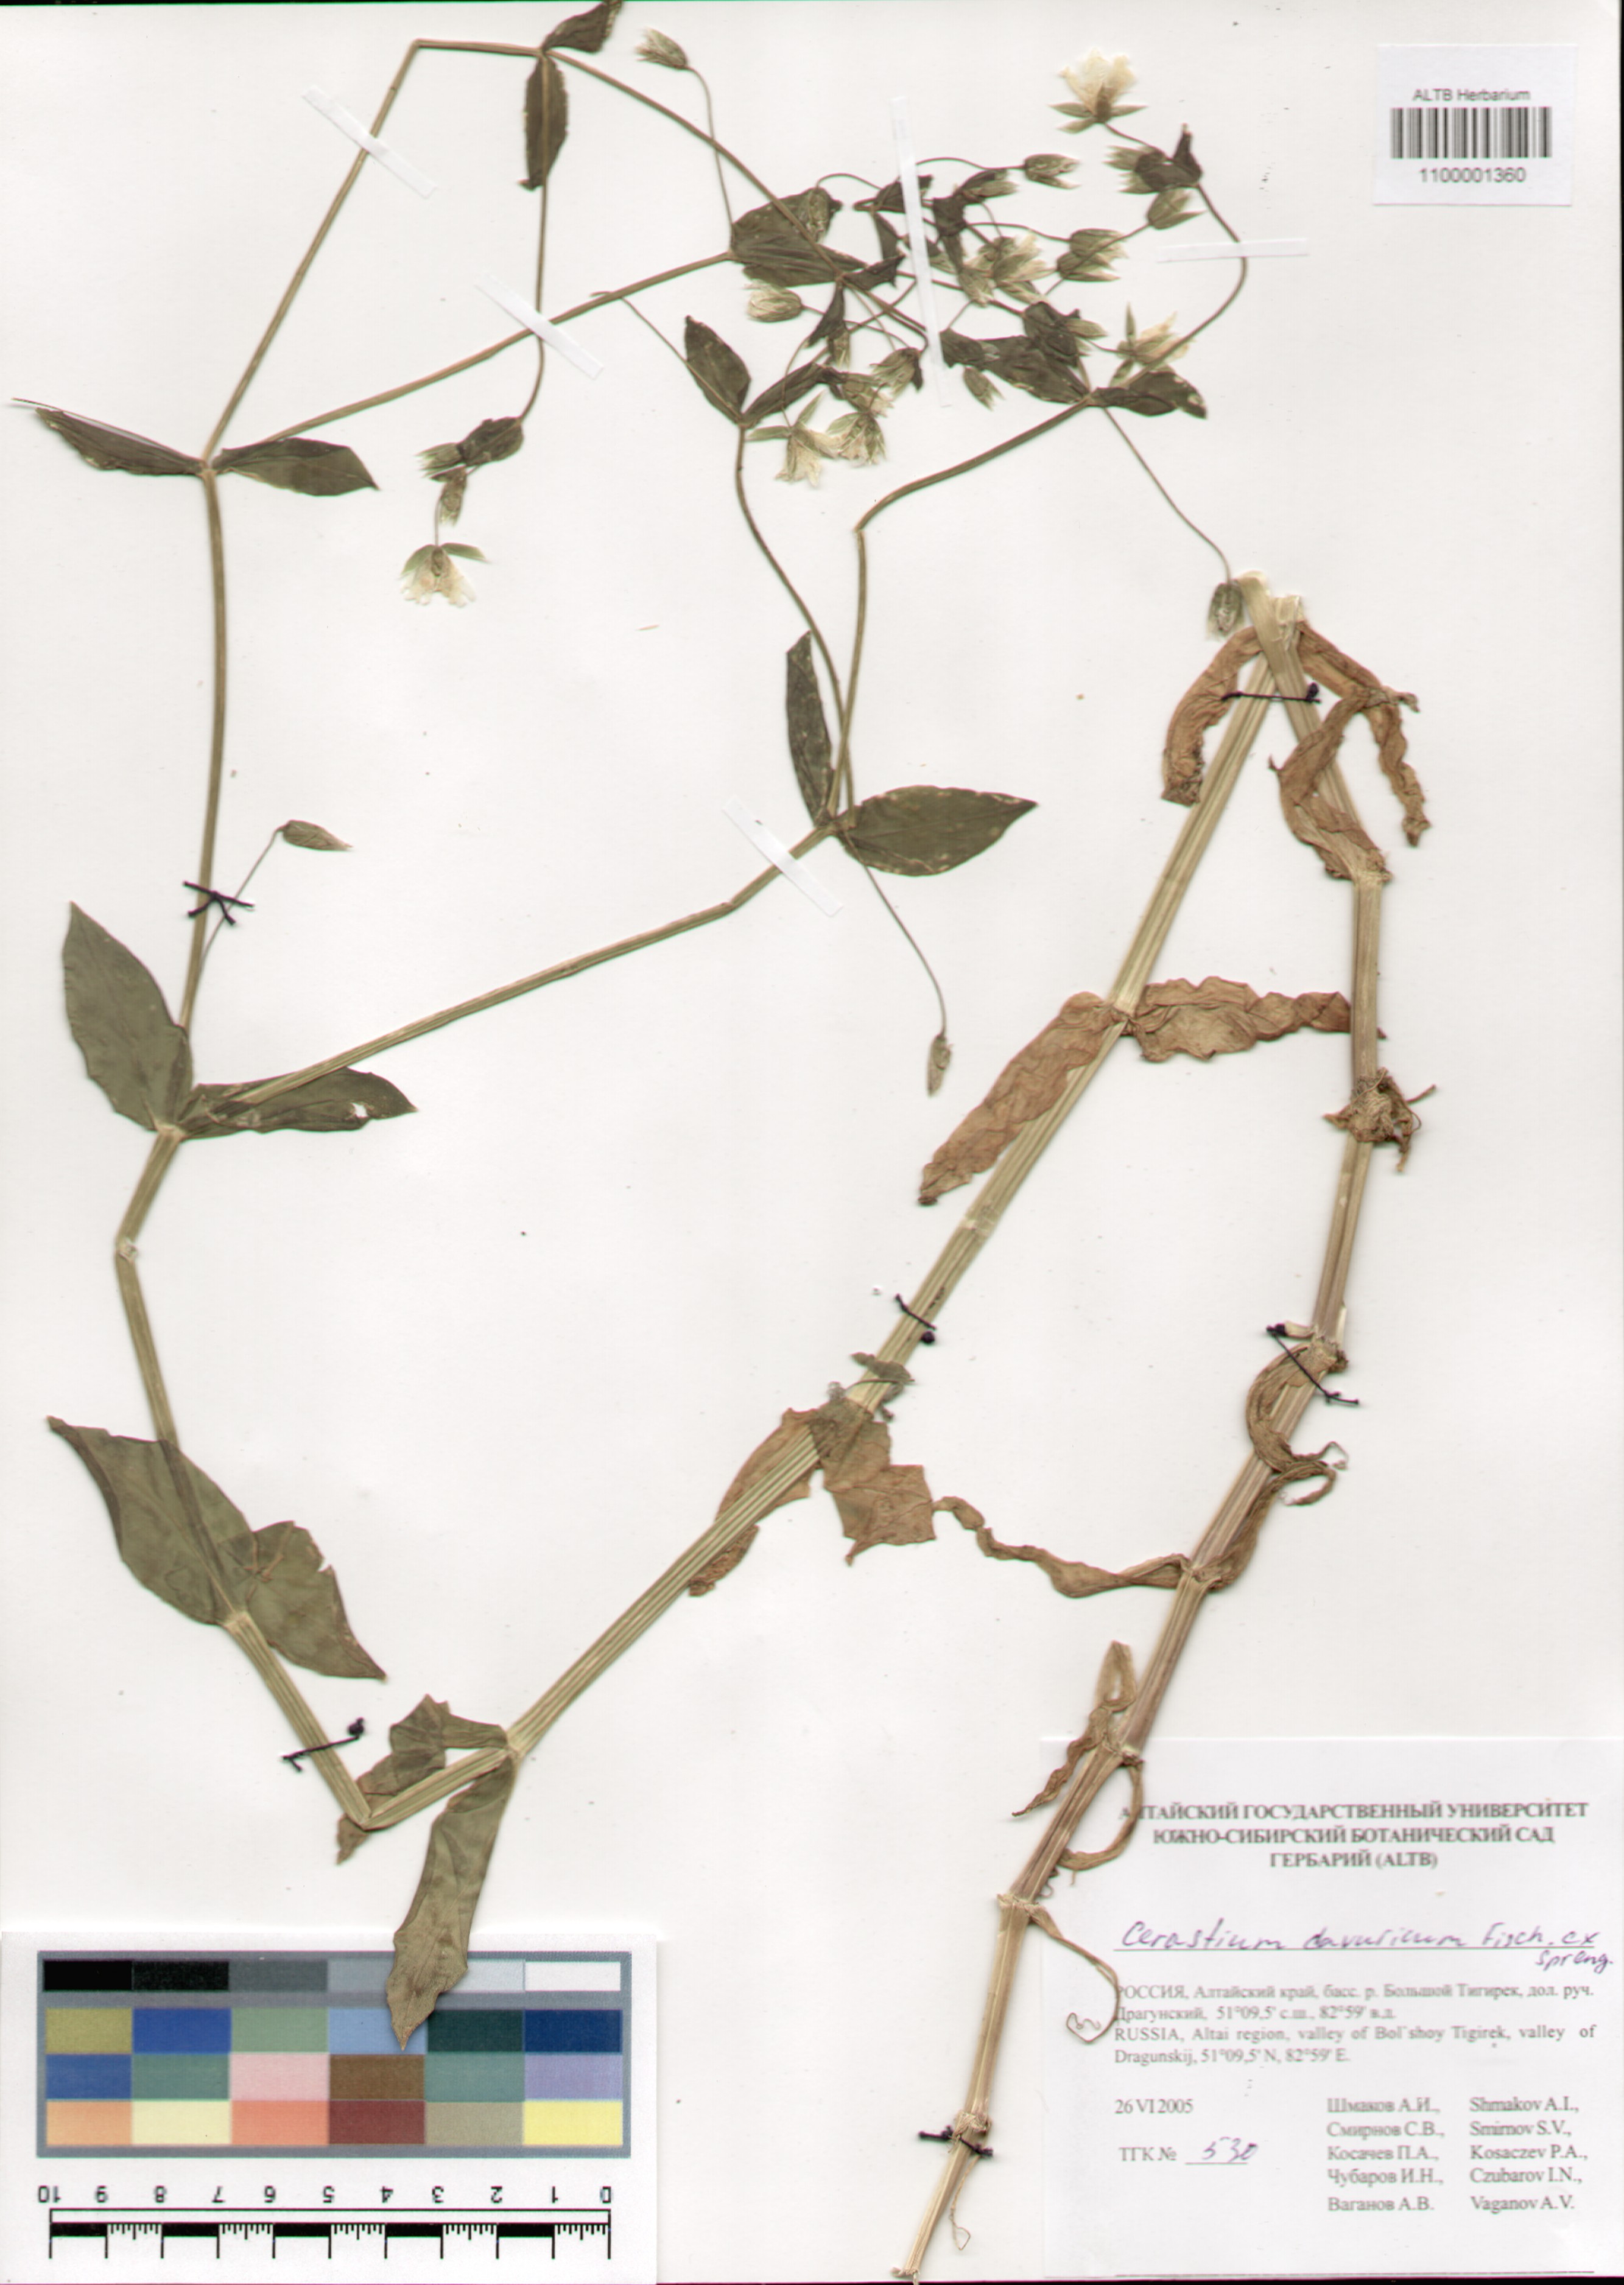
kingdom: Plantae
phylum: Tracheophyta
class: Magnoliopsida
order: Caryophyllales
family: Caryophyllaceae
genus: Dichodon
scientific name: Dichodon davuricum
